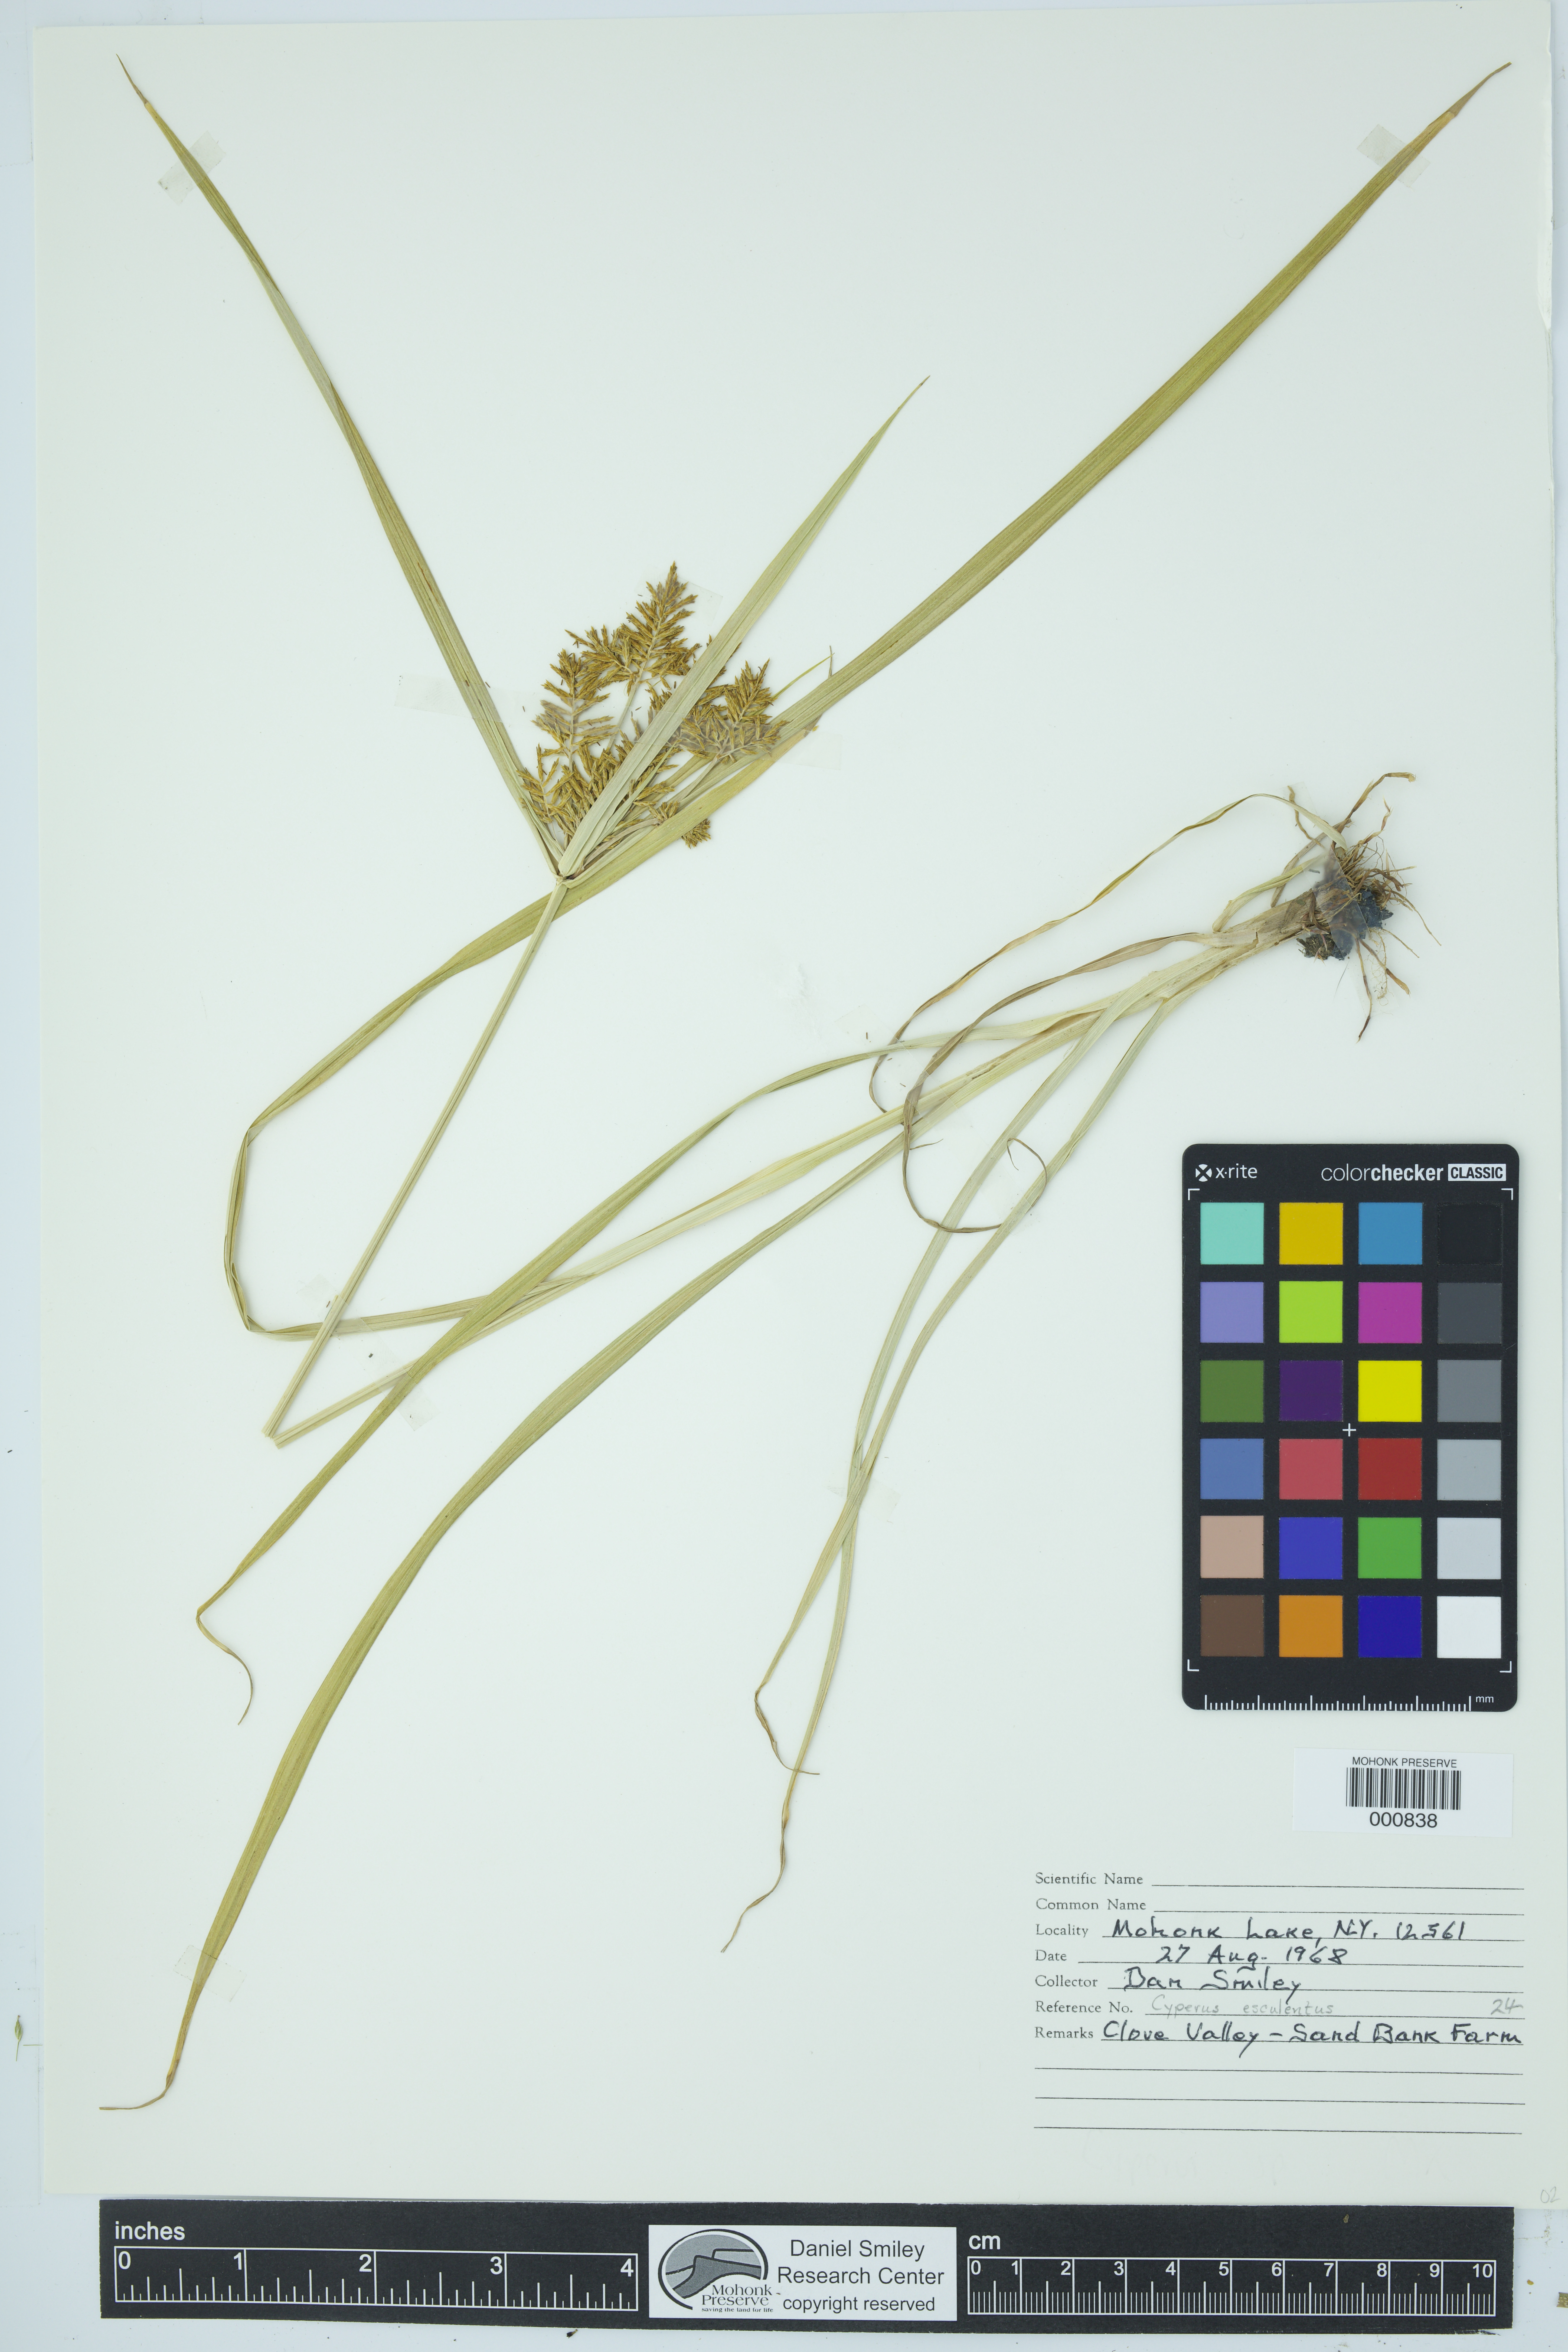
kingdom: Plantae
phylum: Tracheophyta
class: Liliopsida
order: Poales
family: Cyperaceae
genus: Cyperus
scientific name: Cyperus esculentus
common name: Yellow nutsedge
